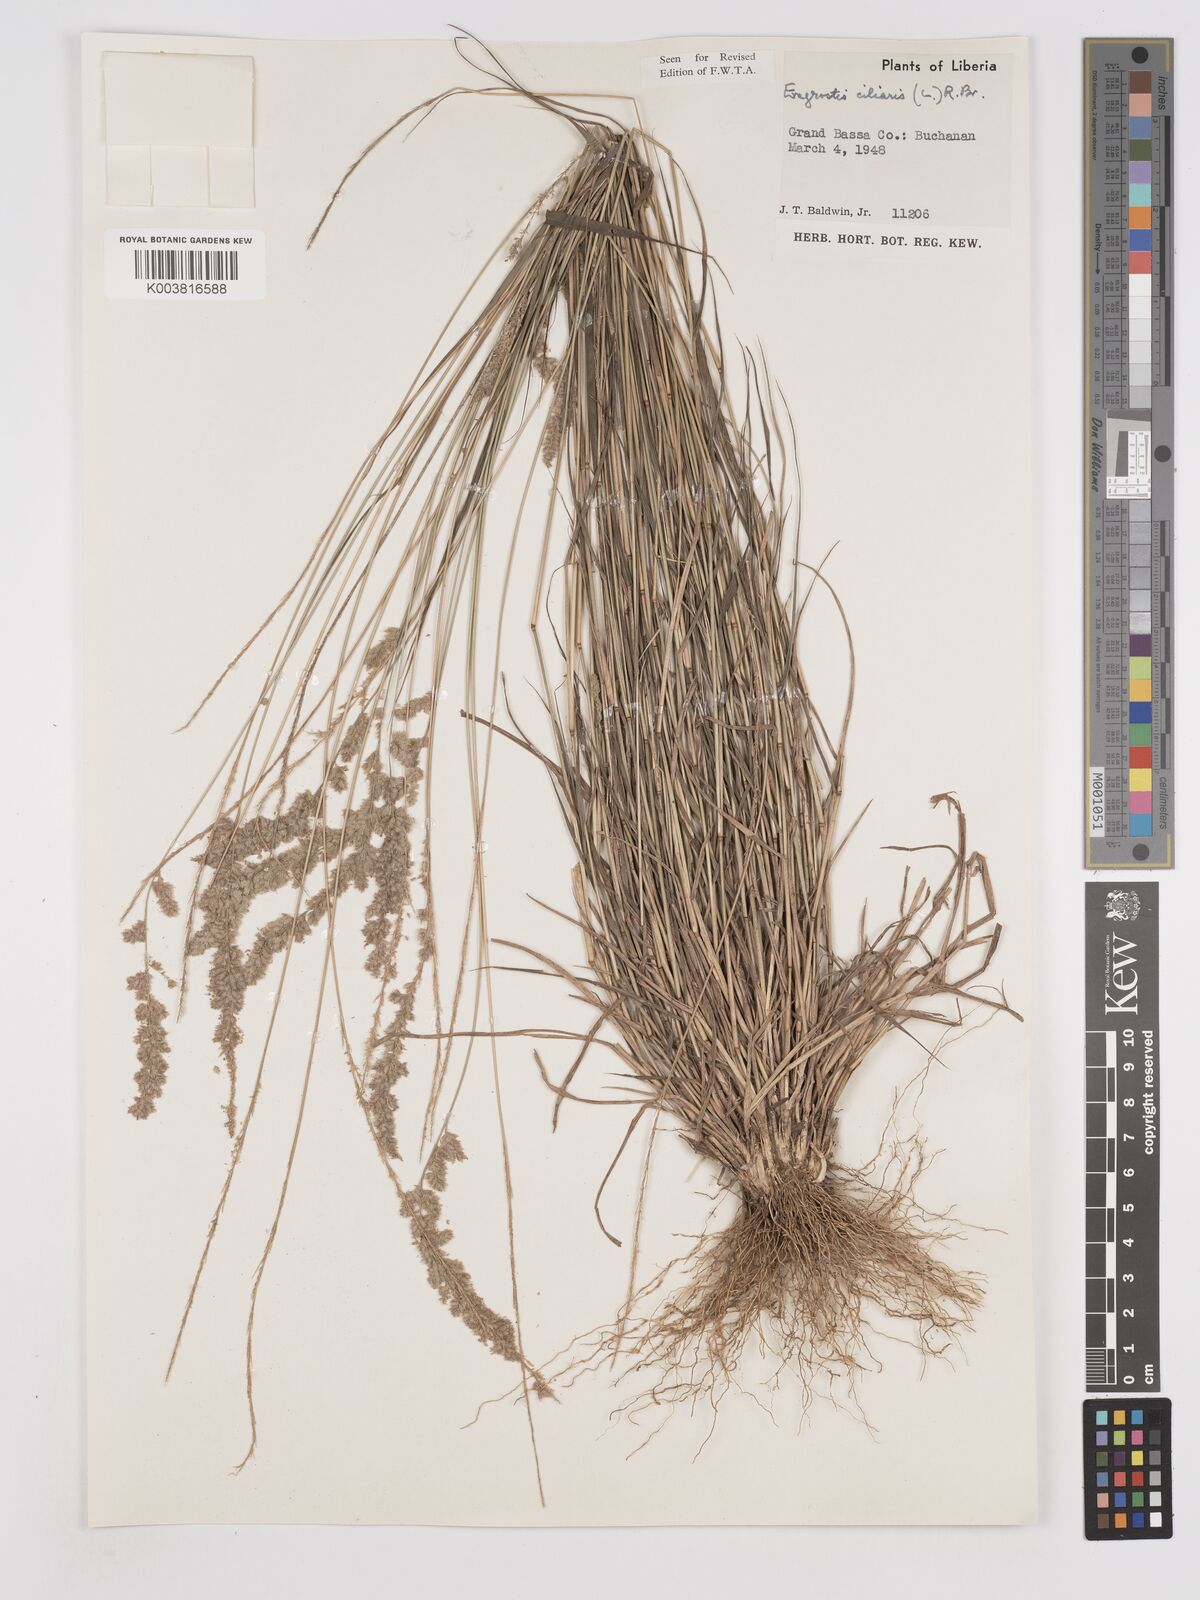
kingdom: Plantae
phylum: Tracheophyta
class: Liliopsida
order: Poales
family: Poaceae
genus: Eragrostis
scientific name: Eragrostis ciliaris
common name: Gophertail lovegrass
